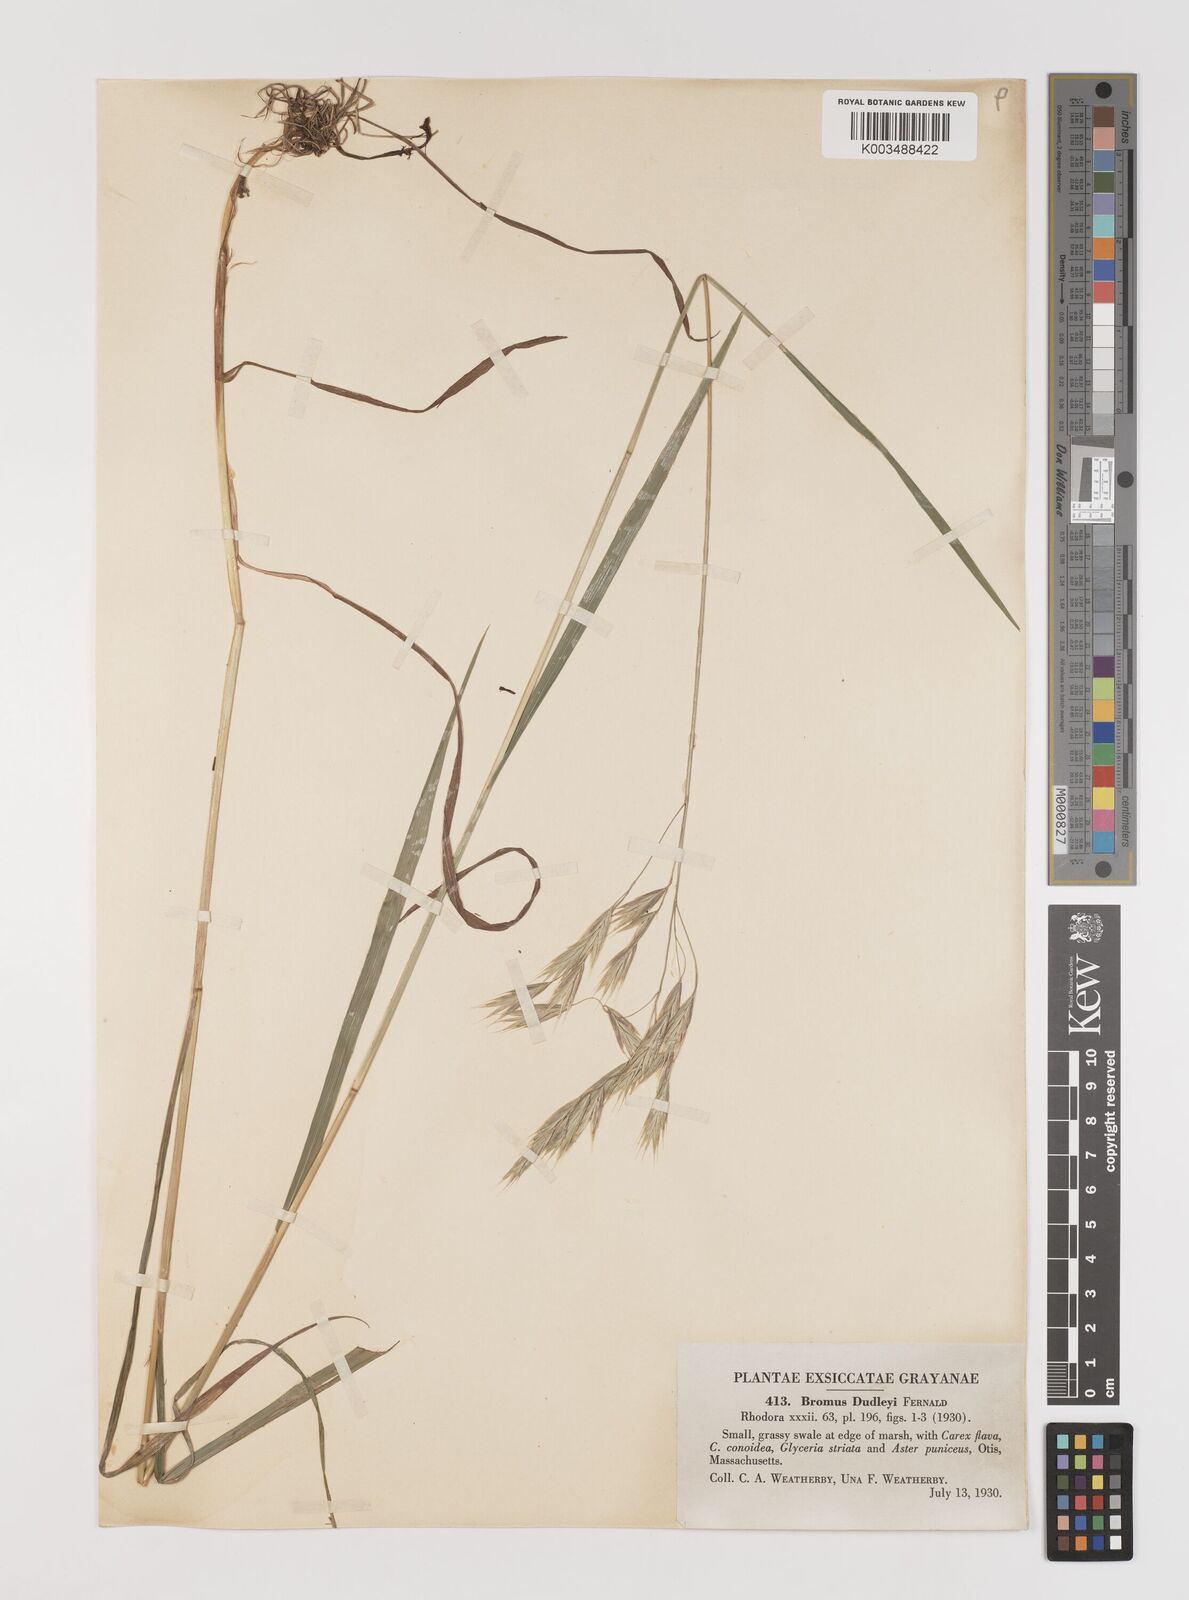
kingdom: Plantae
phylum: Tracheophyta
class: Liliopsida
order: Poales
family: Poaceae
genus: Bromus
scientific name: Bromus ciliatus
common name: Fringe brome
